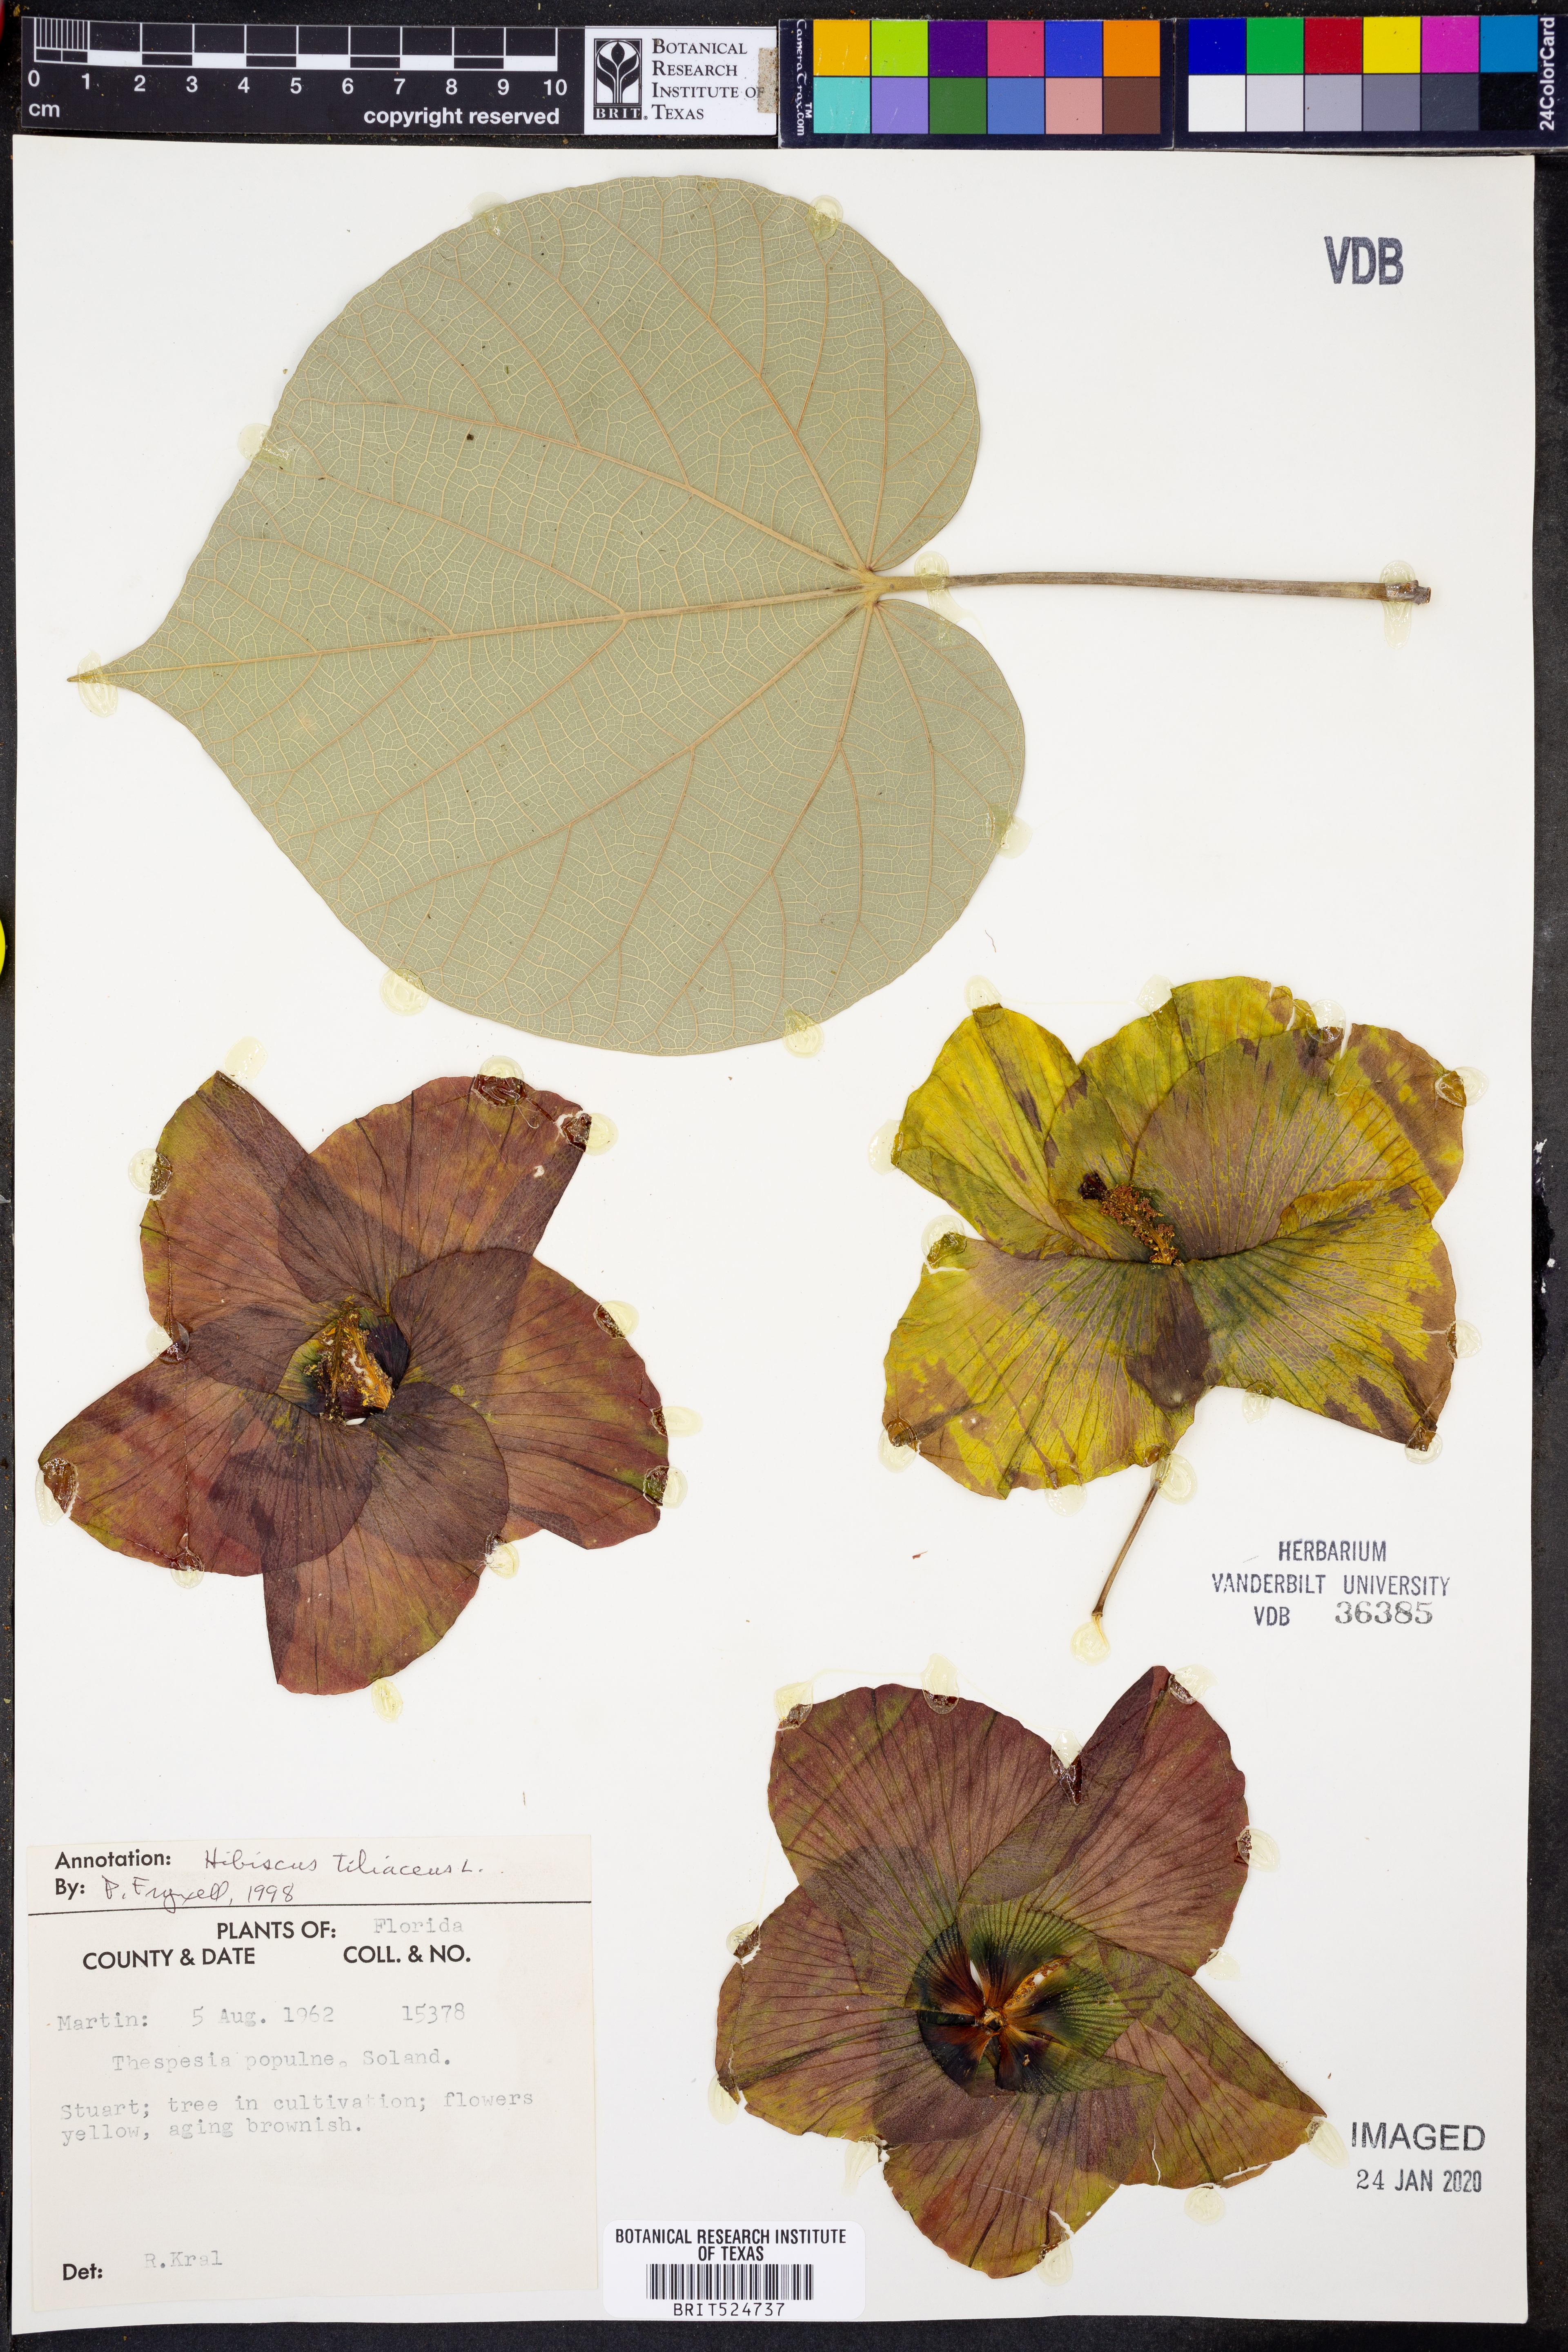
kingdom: Plantae
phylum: Tracheophyta
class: Magnoliopsida
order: Malvales
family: Malvaceae
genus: Talipariti
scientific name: Talipariti tiliaceum
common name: Sea hibiscus
